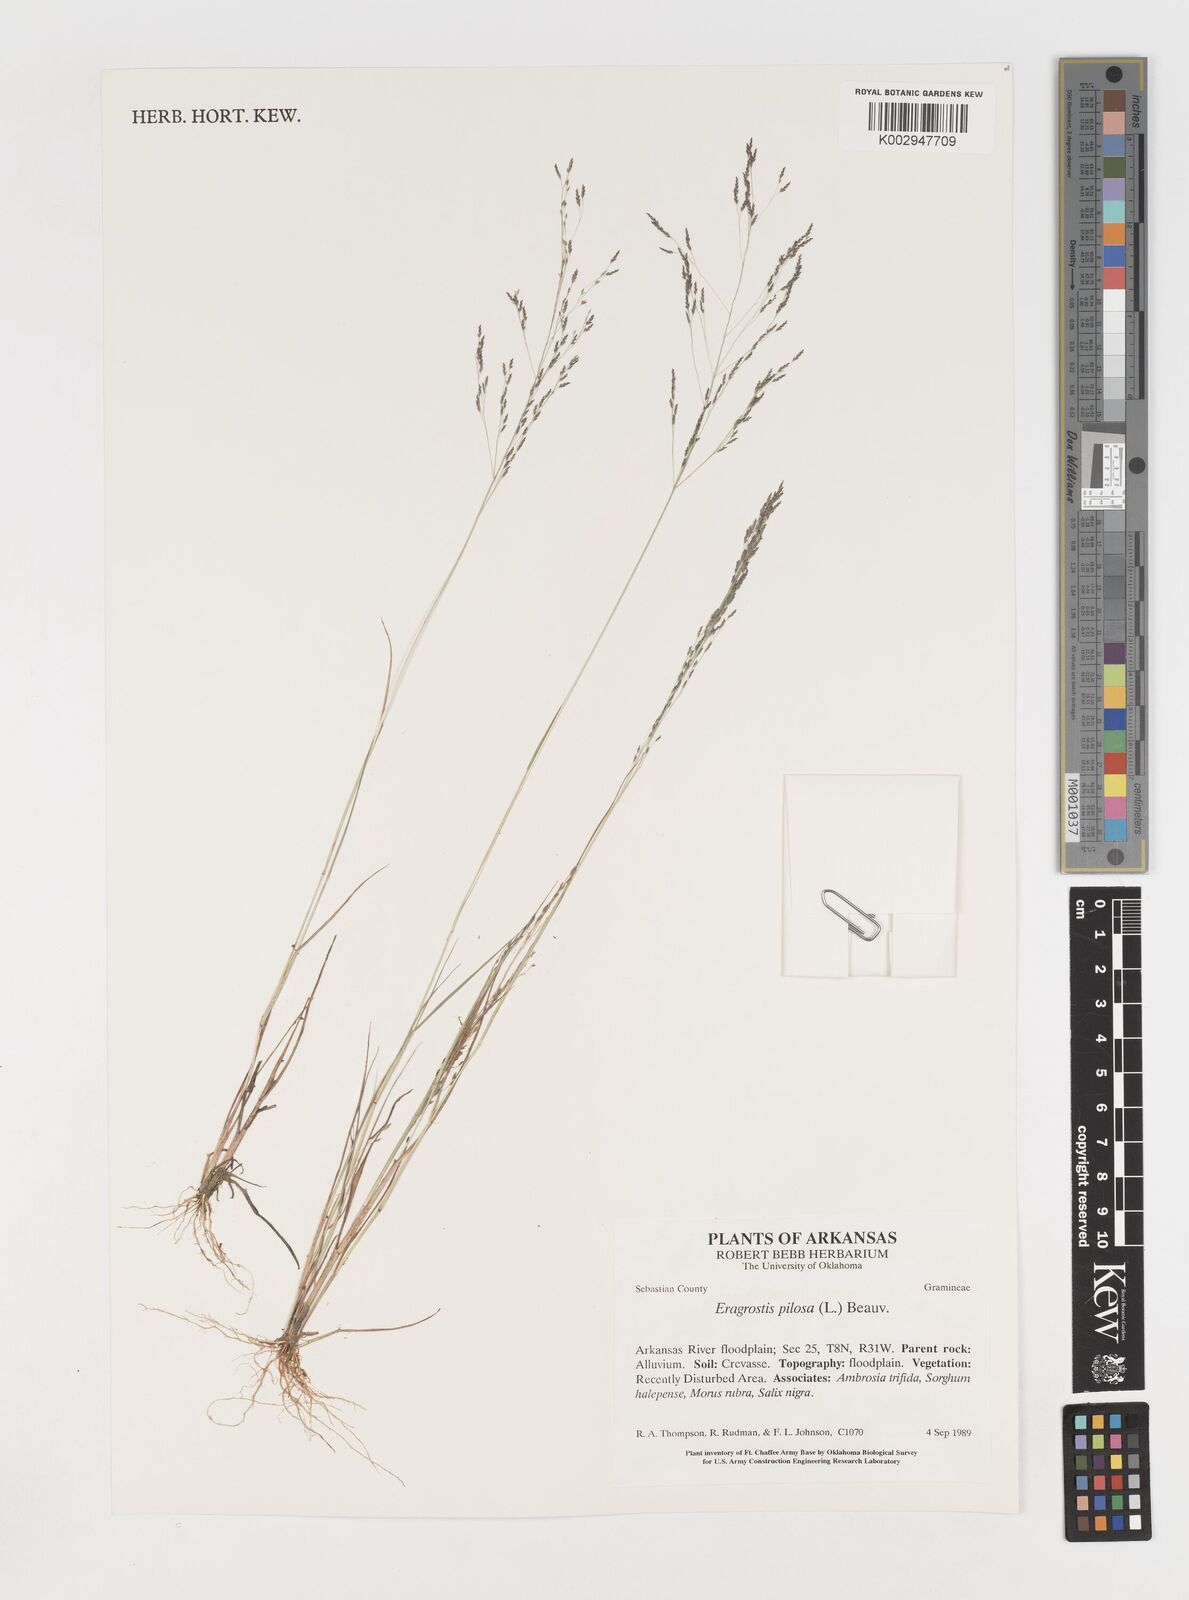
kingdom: Plantae
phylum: Tracheophyta
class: Liliopsida
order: Poales
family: Poaceae
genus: Eragrostis
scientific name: Eragrostis pilosa
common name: Indian lovegrass
